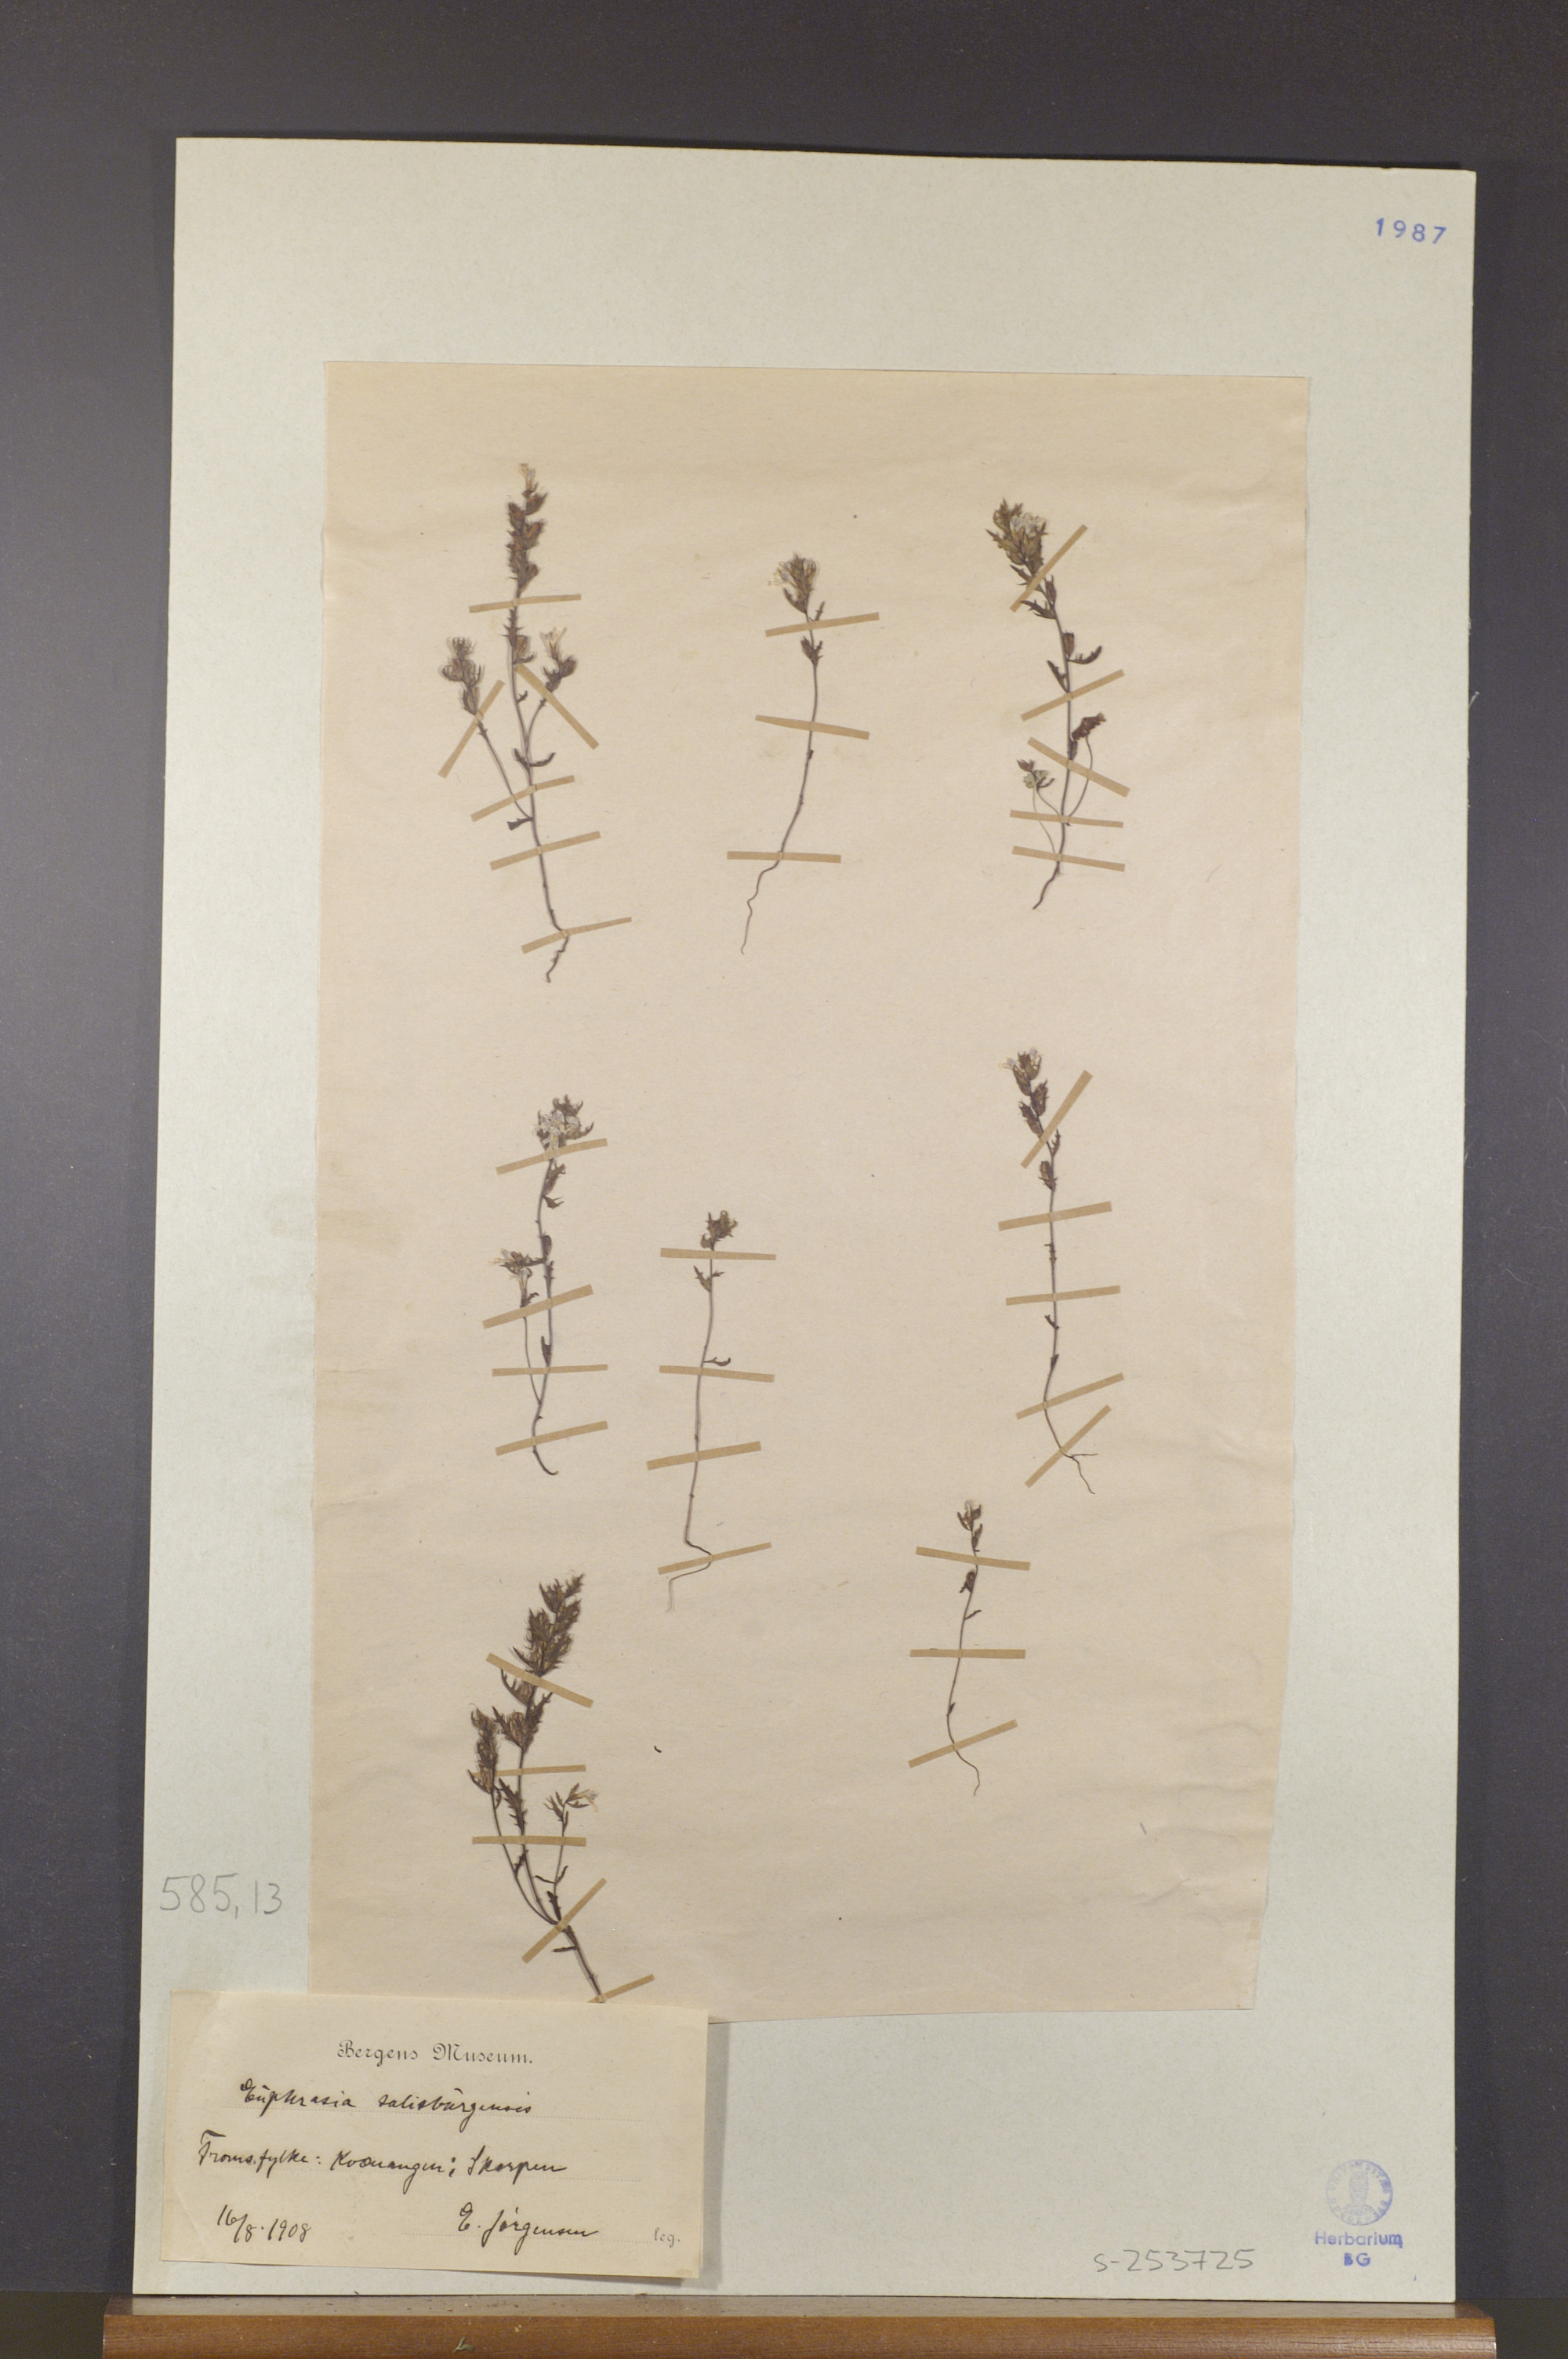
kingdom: Plantae
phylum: Tracheophyta
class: Magnoliopsida
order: Lamiales
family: Orobanchaceae
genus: Euphrasia
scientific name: Euphrasia salisburgensis
